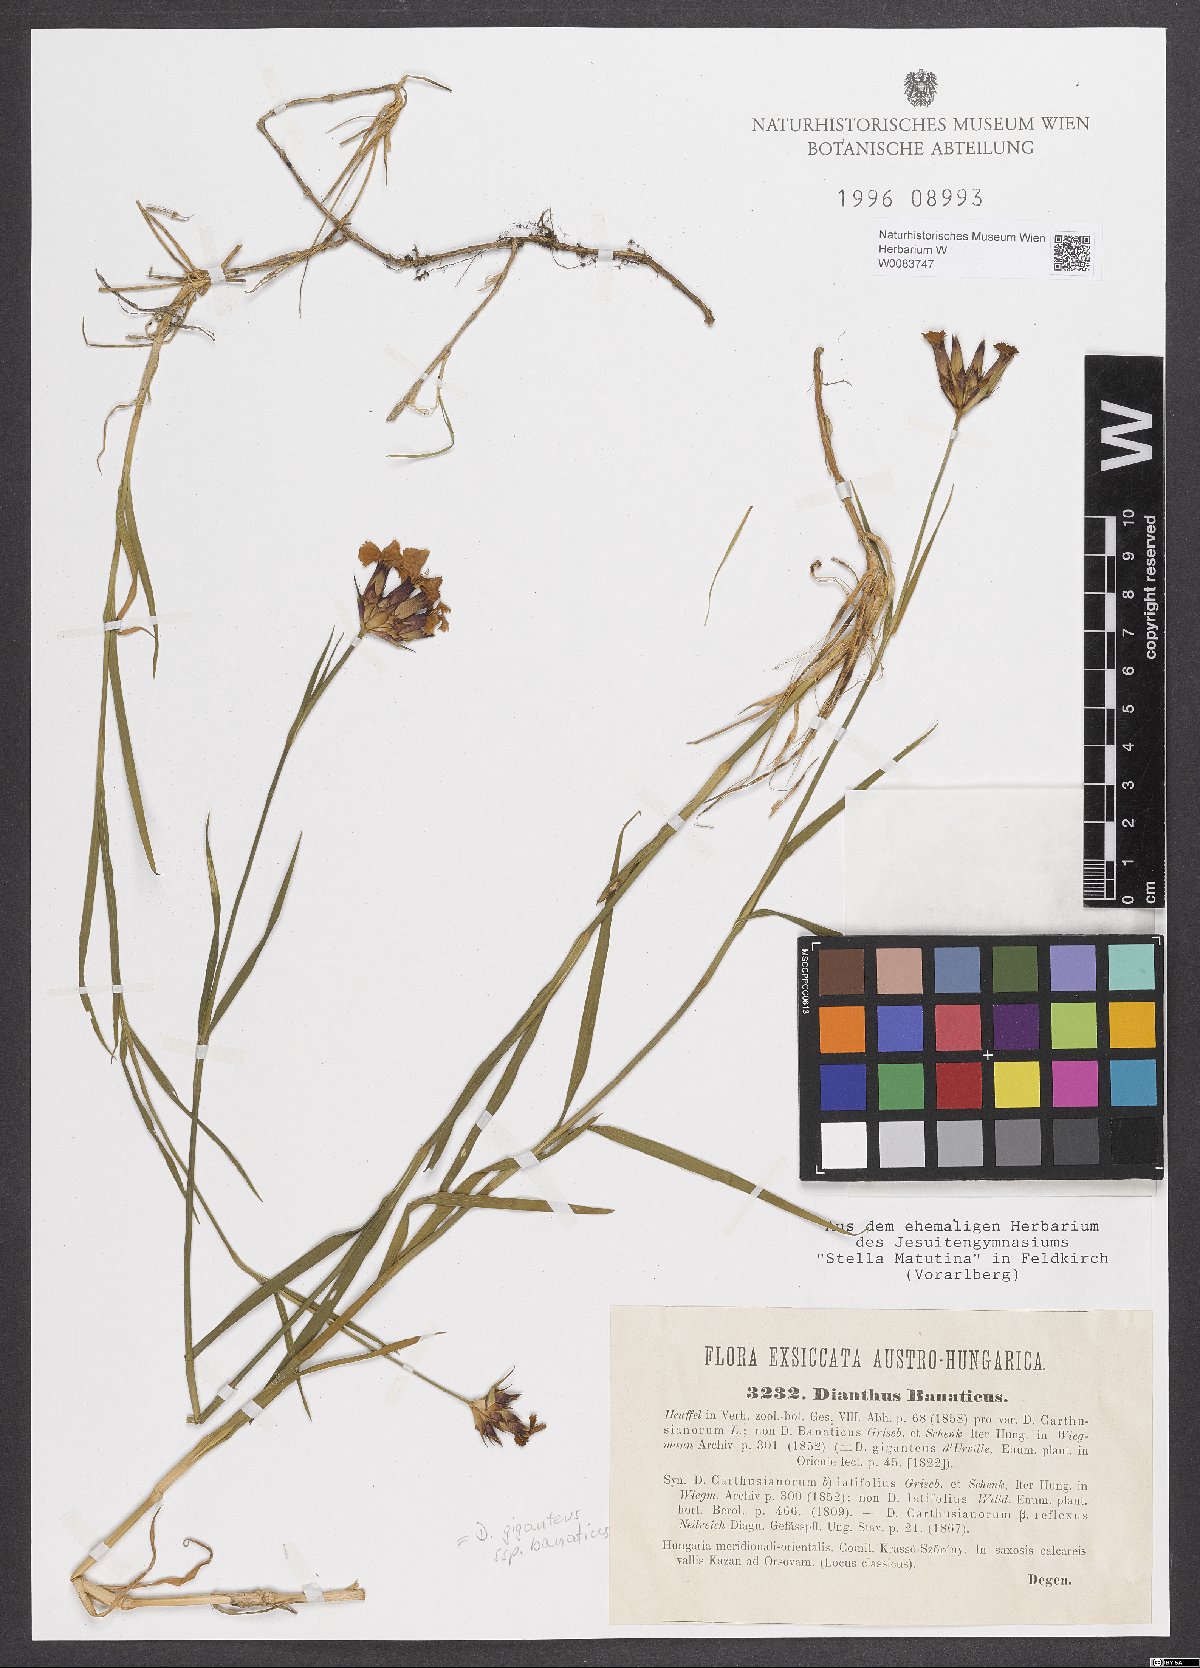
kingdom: Plantae
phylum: Tracheophyta
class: Magnoliopsida
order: Caryophyllales
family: Caryophyllaceae
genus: Dianthus
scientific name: Dianthus giganteus
